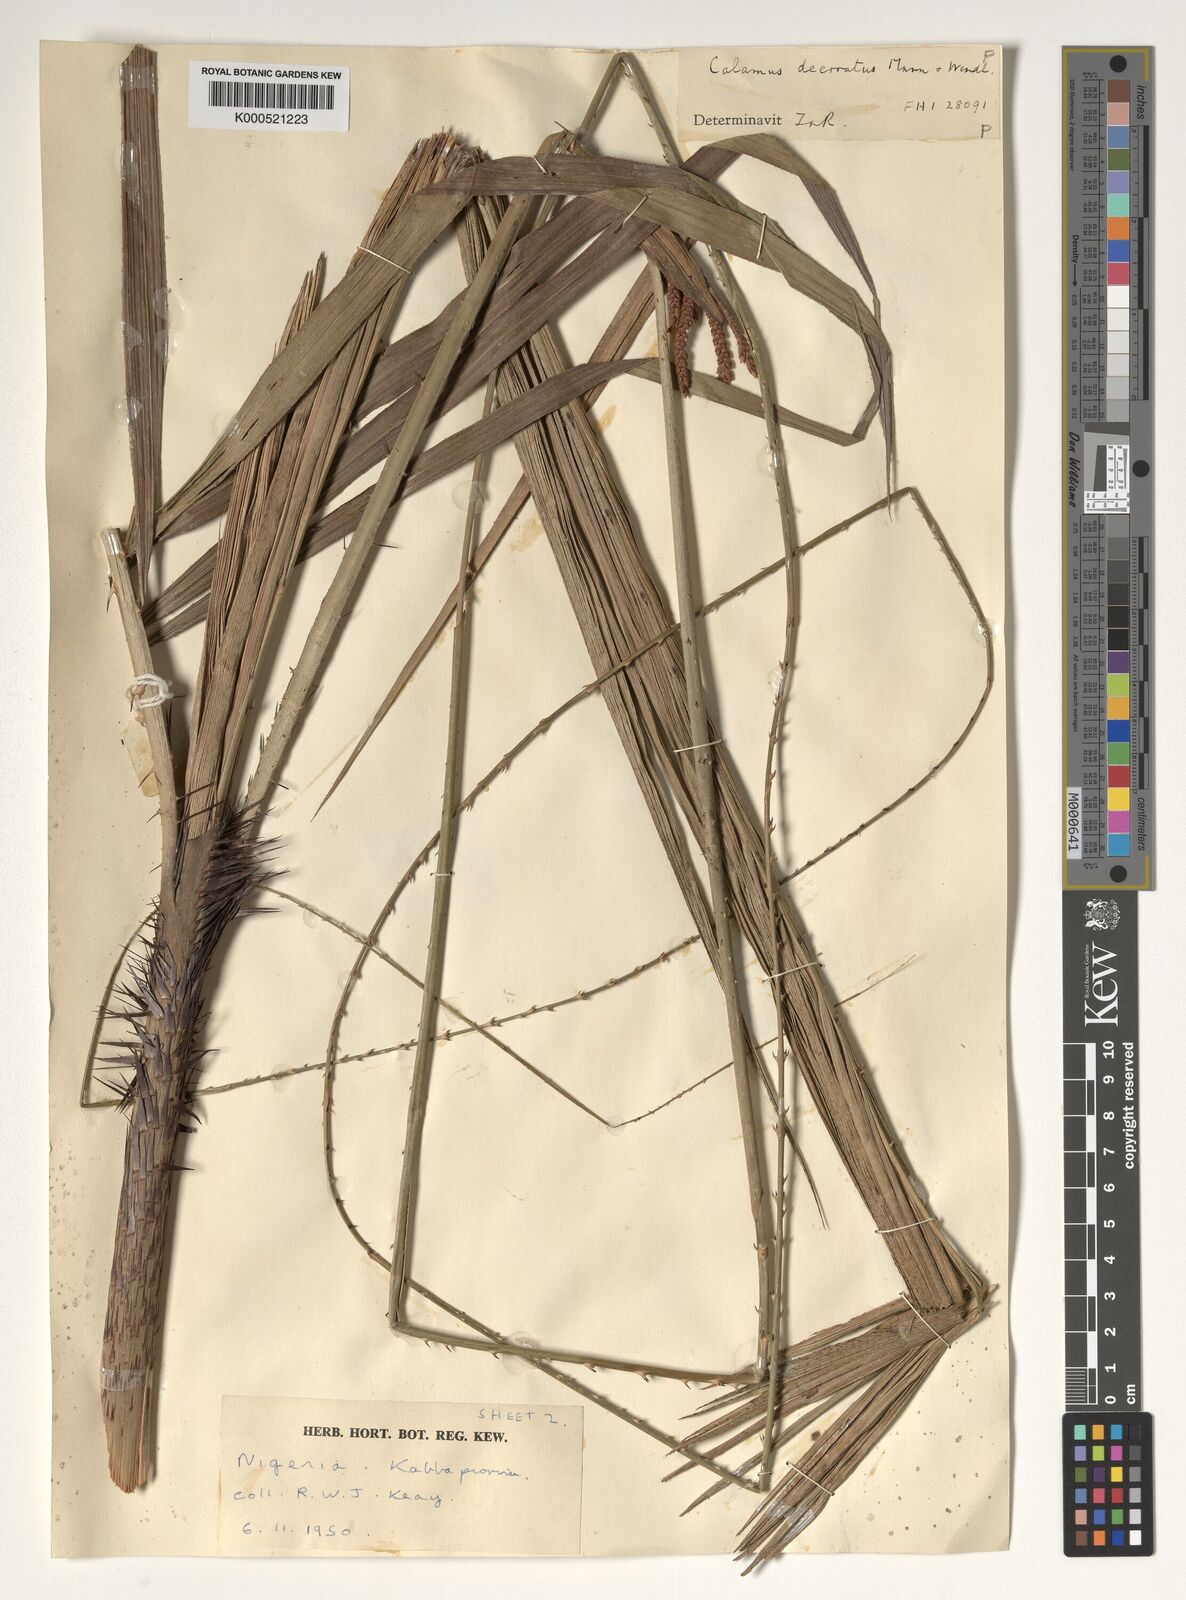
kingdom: Plantae
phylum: Tracheophyta
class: Liliopsida
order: Arecales
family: Arecaceae
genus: Calamus
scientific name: Calamus deerratus
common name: Rattan
